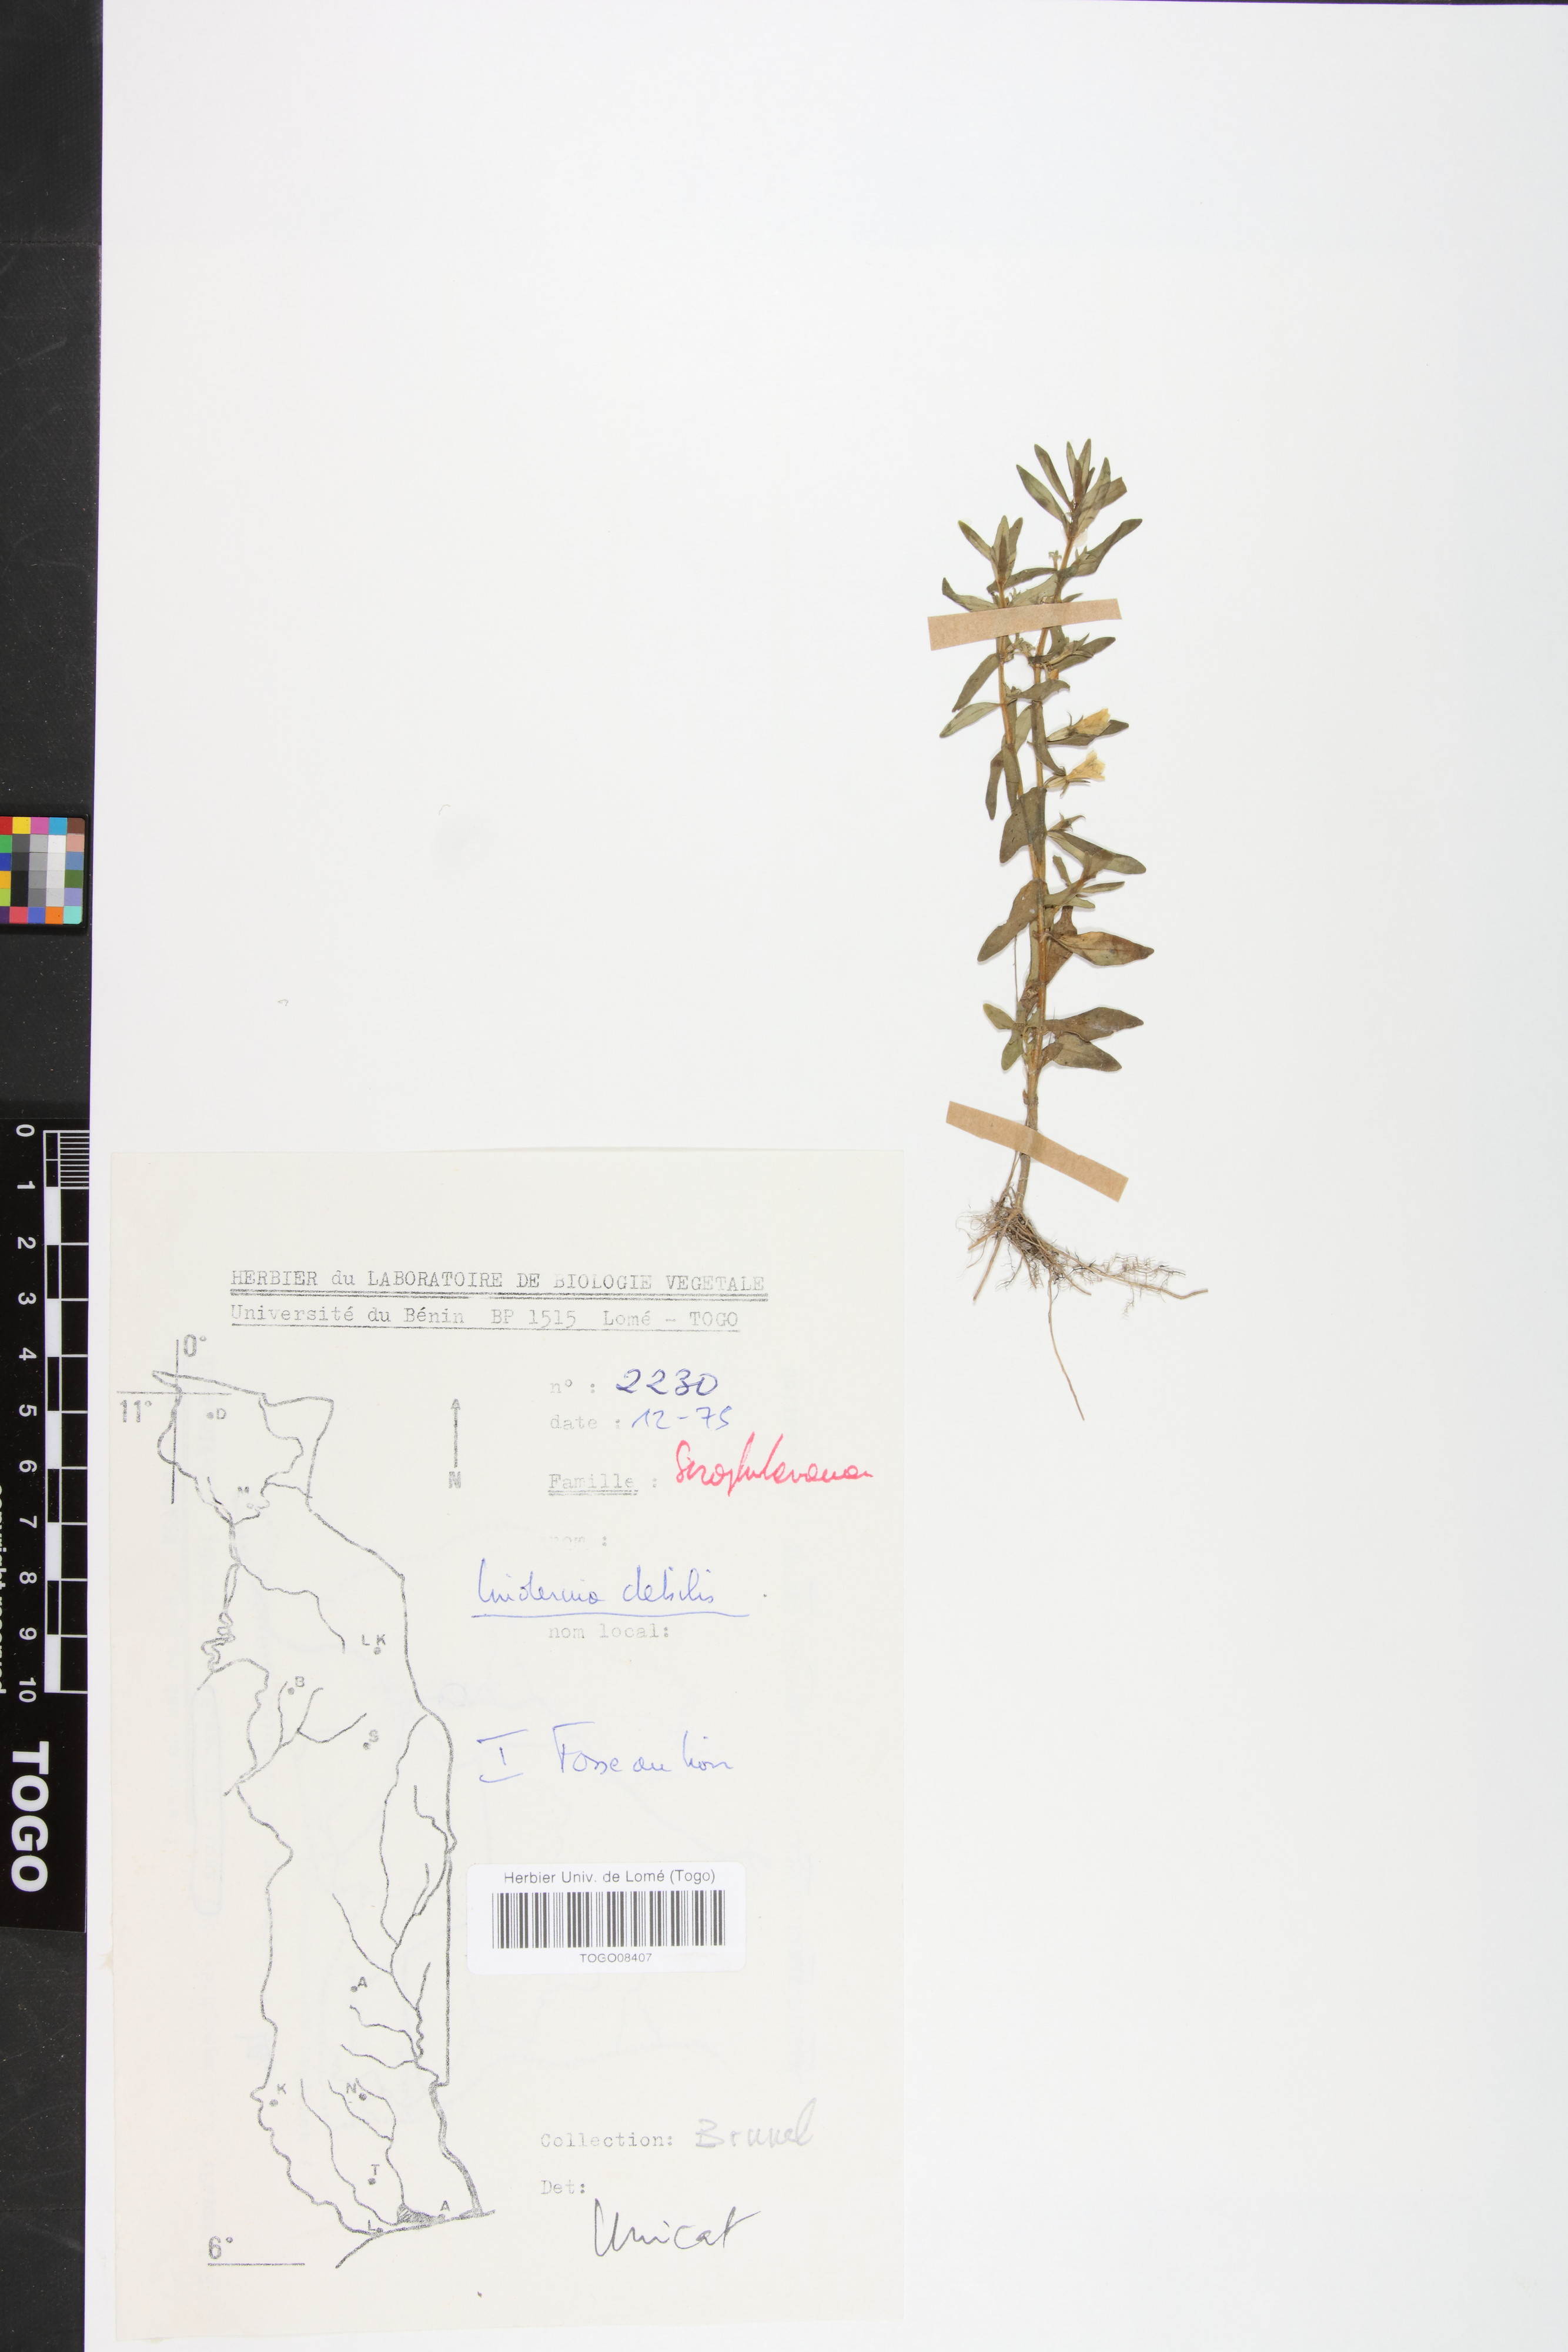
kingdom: Plantae
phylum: Tracheophyta
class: Magnoliopsida
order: Lamiales
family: Linderniaceae
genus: Crepidorhopalon
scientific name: Crepidorhopalon debilis
